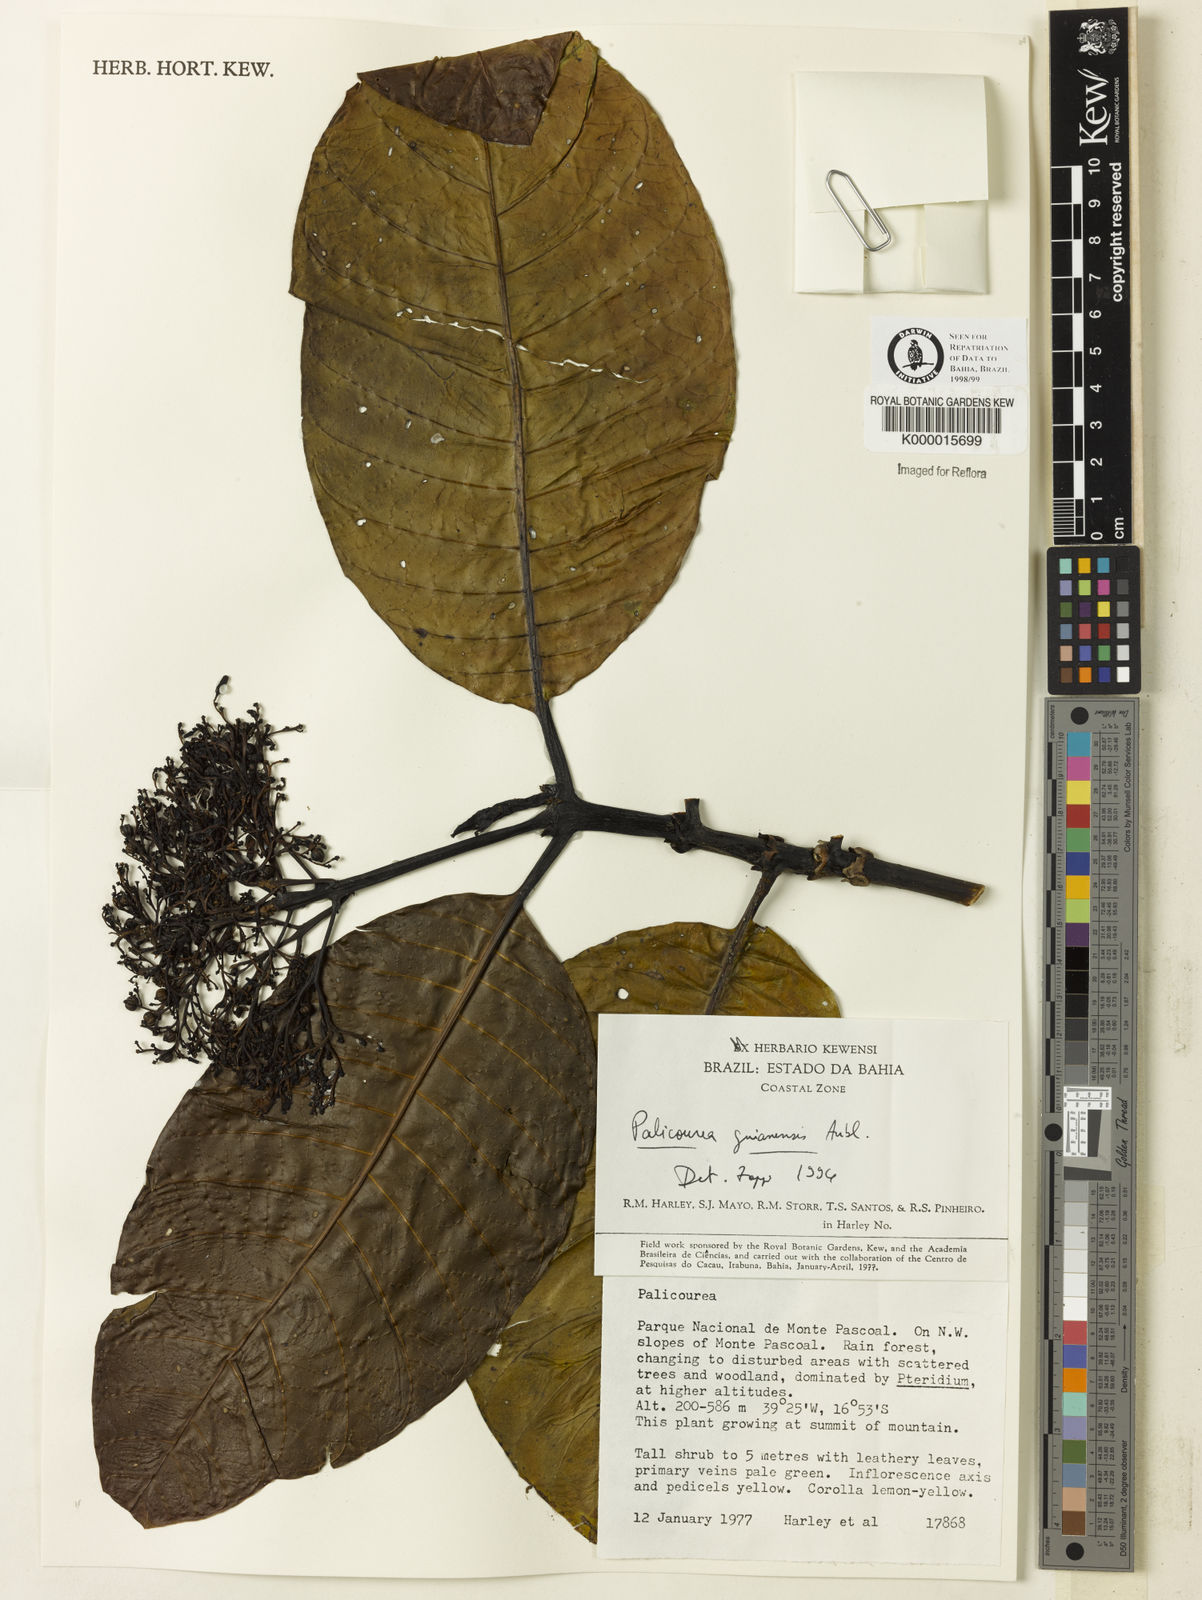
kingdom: Plantae
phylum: Tracheophyta
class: Magnoliopsida
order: Gentianales
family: Rubiaceae
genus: Palicourea
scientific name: Palicourea guianensis
